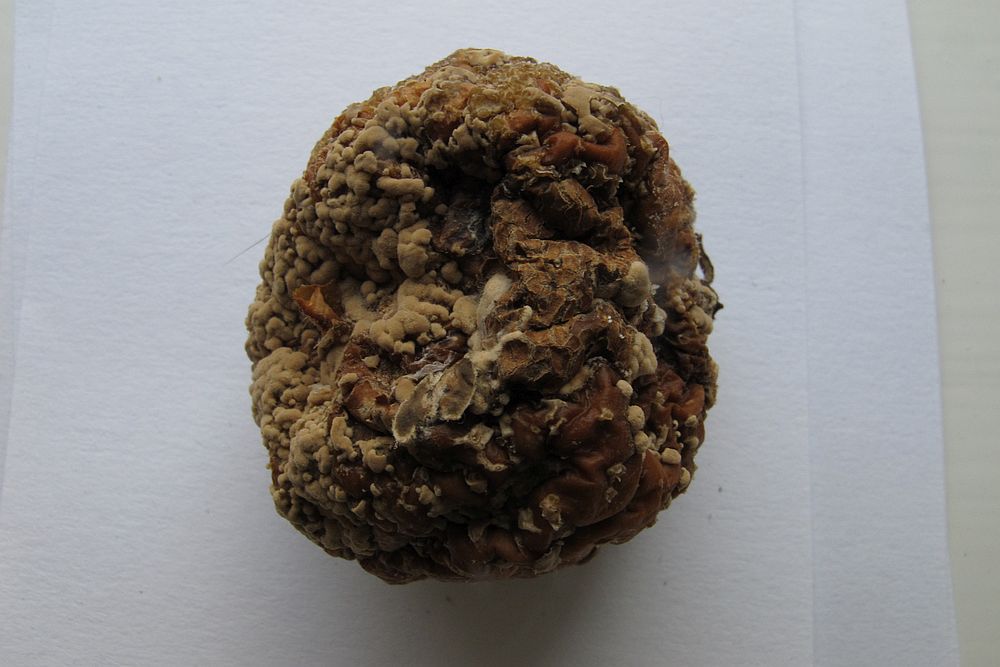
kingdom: Fungi
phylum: Ascomycota
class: Leotiomycetes
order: Helotiales
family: Sclerotiniaceae
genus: Monilinia
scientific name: Monilinia fructigena
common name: æble-knoldskive
